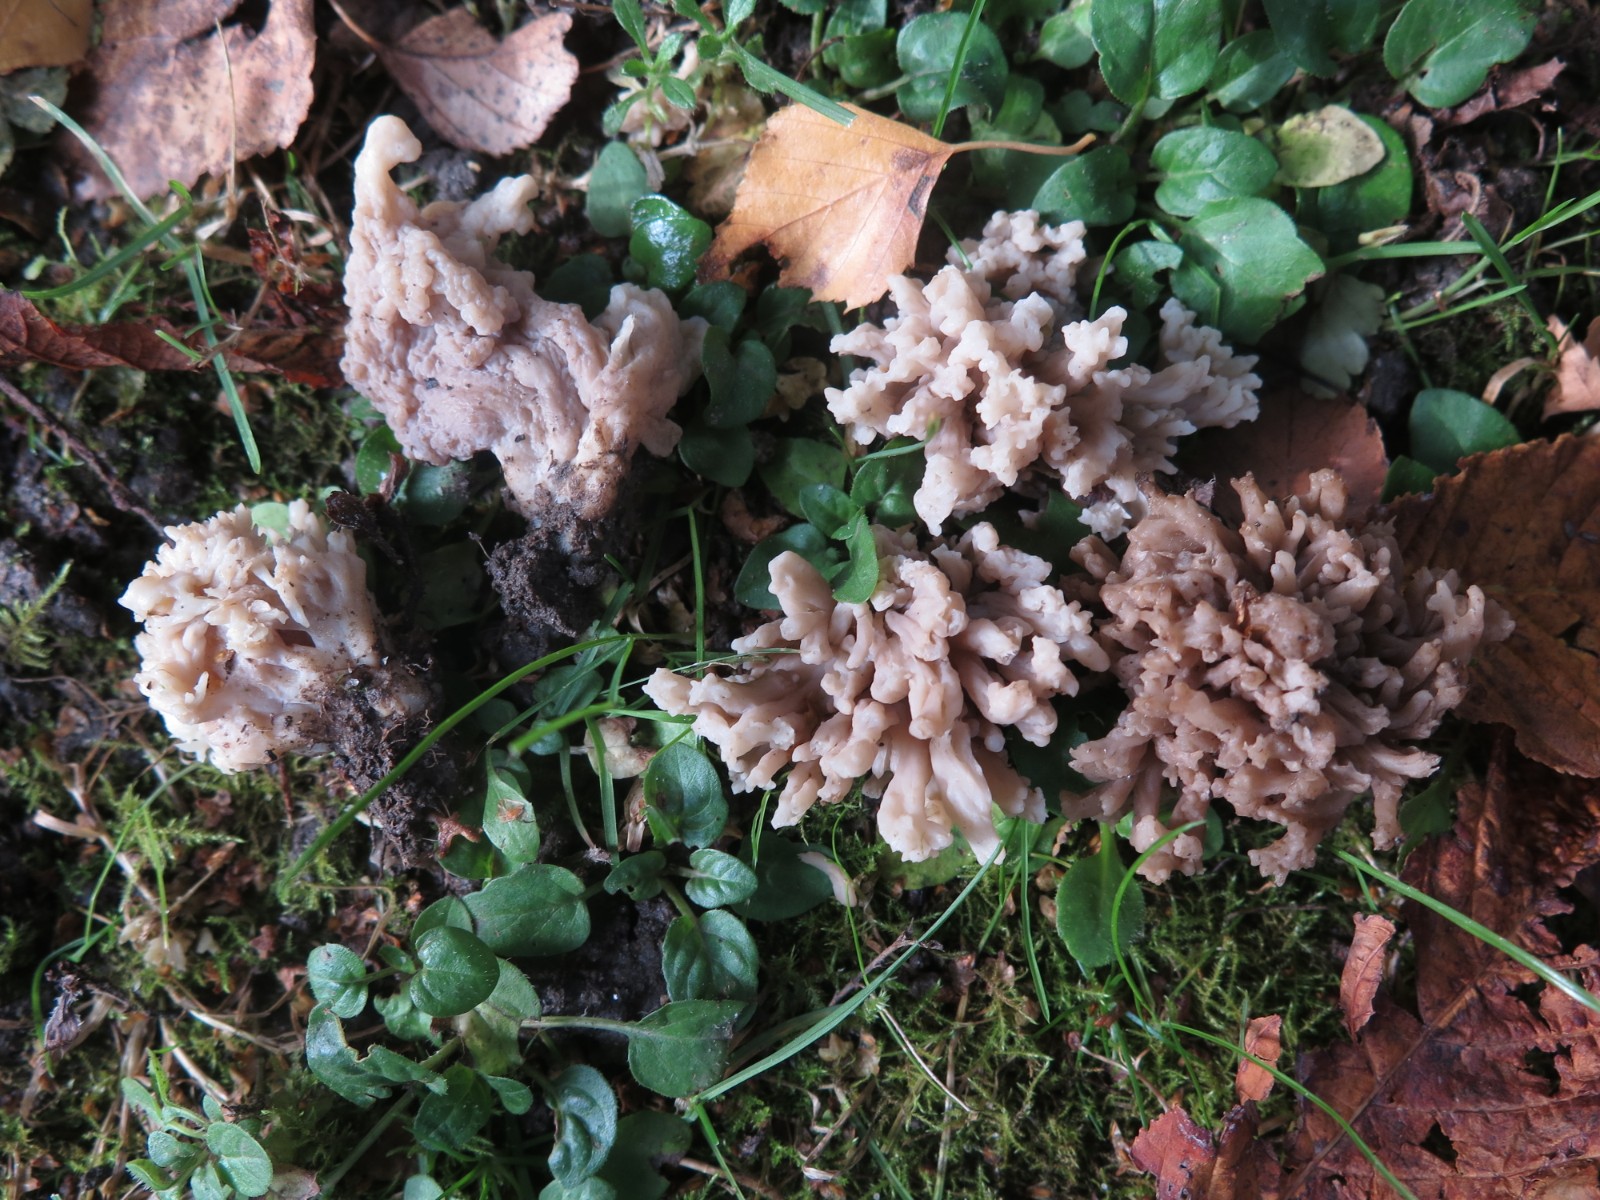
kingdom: Fungi
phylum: Basidiomycota
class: Agaricomycetes
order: Cantharellales
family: Hydnaceae
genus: Clavulina
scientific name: Clavulina
